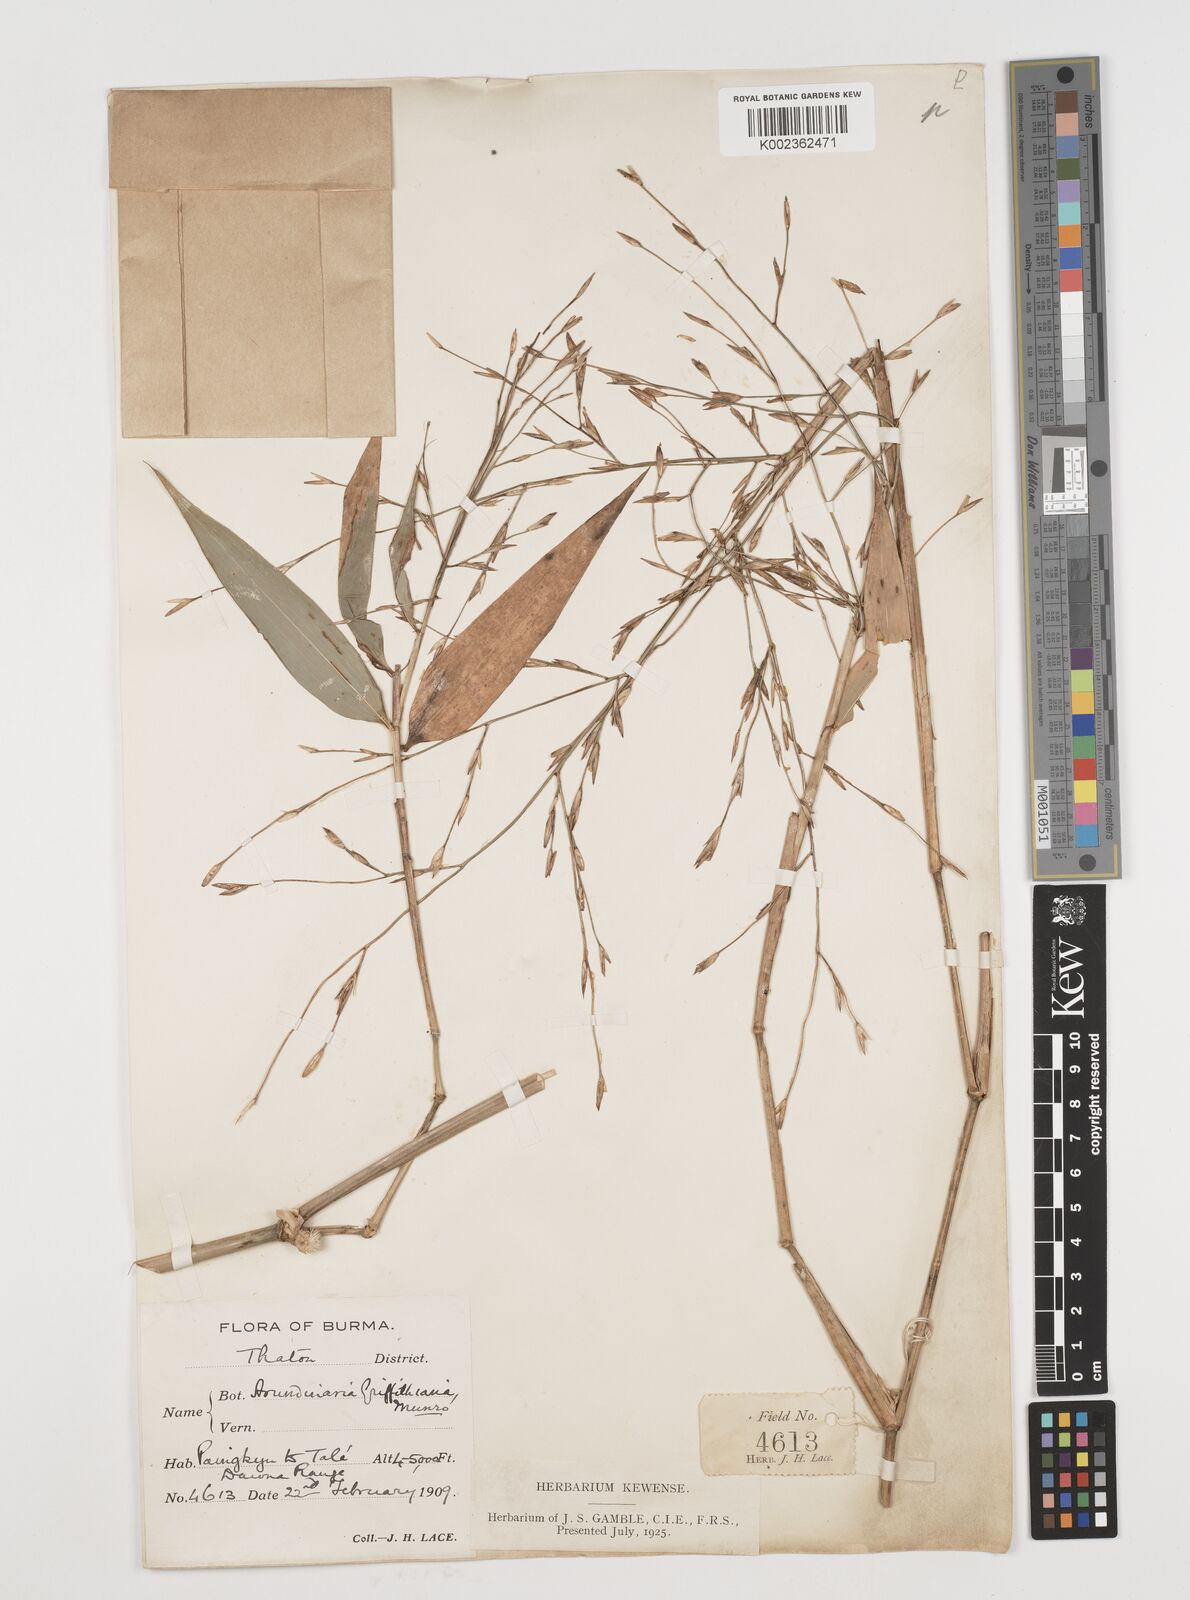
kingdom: Plantae
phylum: Tracheophyta
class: Liliopsida
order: Poales
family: Poaceae
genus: Chimonocalamus
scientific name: Chimonocalamus griffithianus
